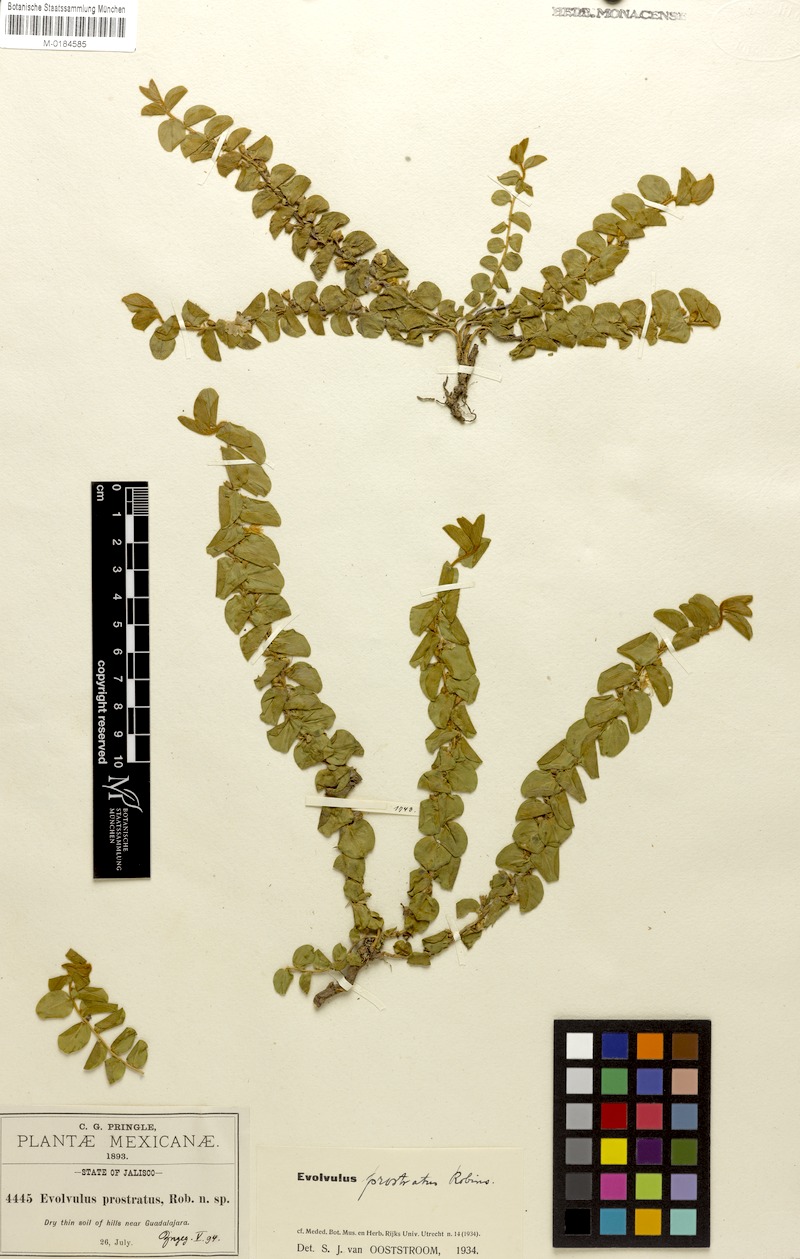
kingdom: Plantae
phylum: Tracheophyta
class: Magnoliopsida
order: Solanales
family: Convolvulaceae
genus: Evolvulus
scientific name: Evolvulus prostratus
